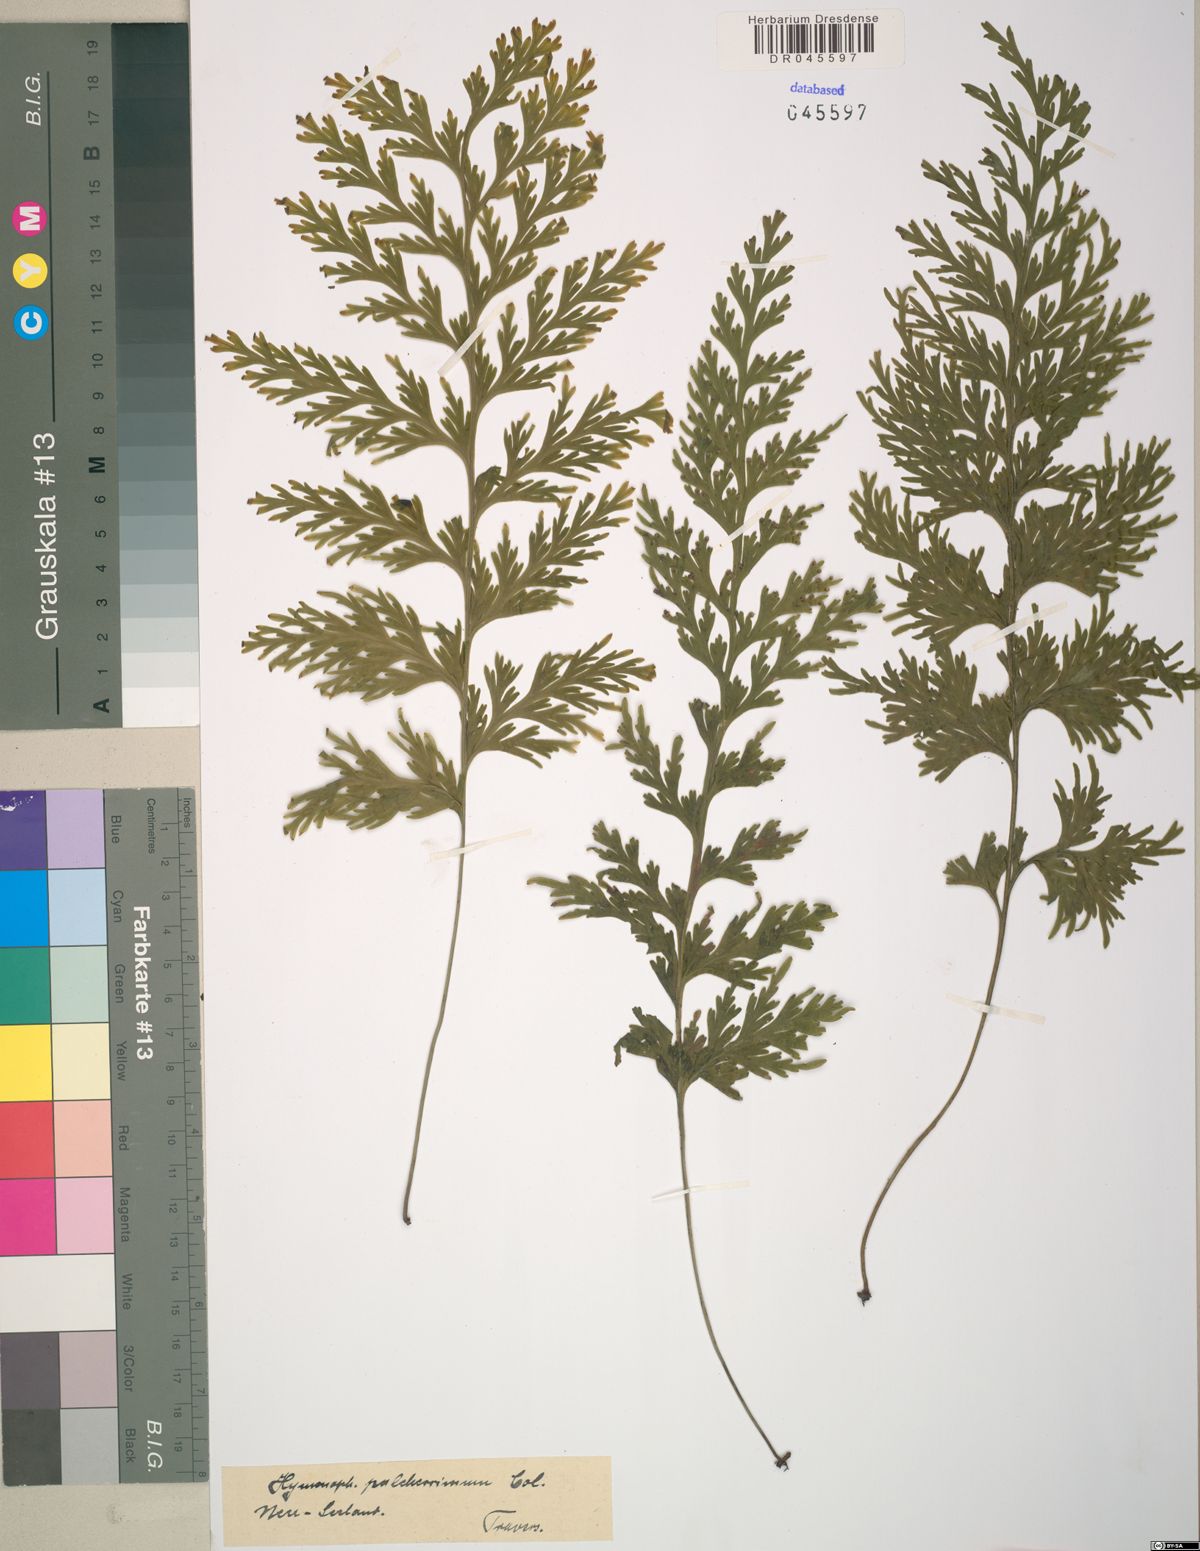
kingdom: Plantae
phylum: Tracheophyta
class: Polypodiopsida
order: Hymenophyllales
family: Hymenophyllaceae
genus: Hymenophyllum
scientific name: Hymenophyllum pulcherrimum
